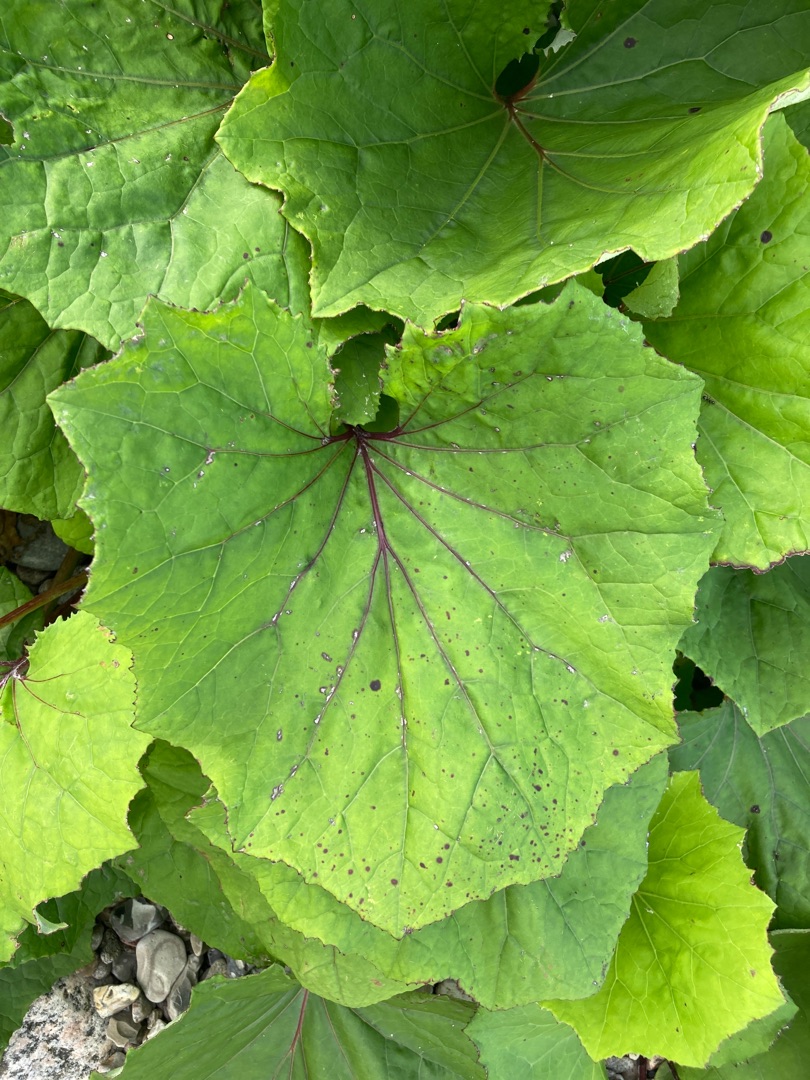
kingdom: Plantae
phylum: Tracheophyta
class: Magnoliopsida
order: Asterales
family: Asteraceae
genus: Tussilago
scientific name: Tussilago farfara
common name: Følfod
